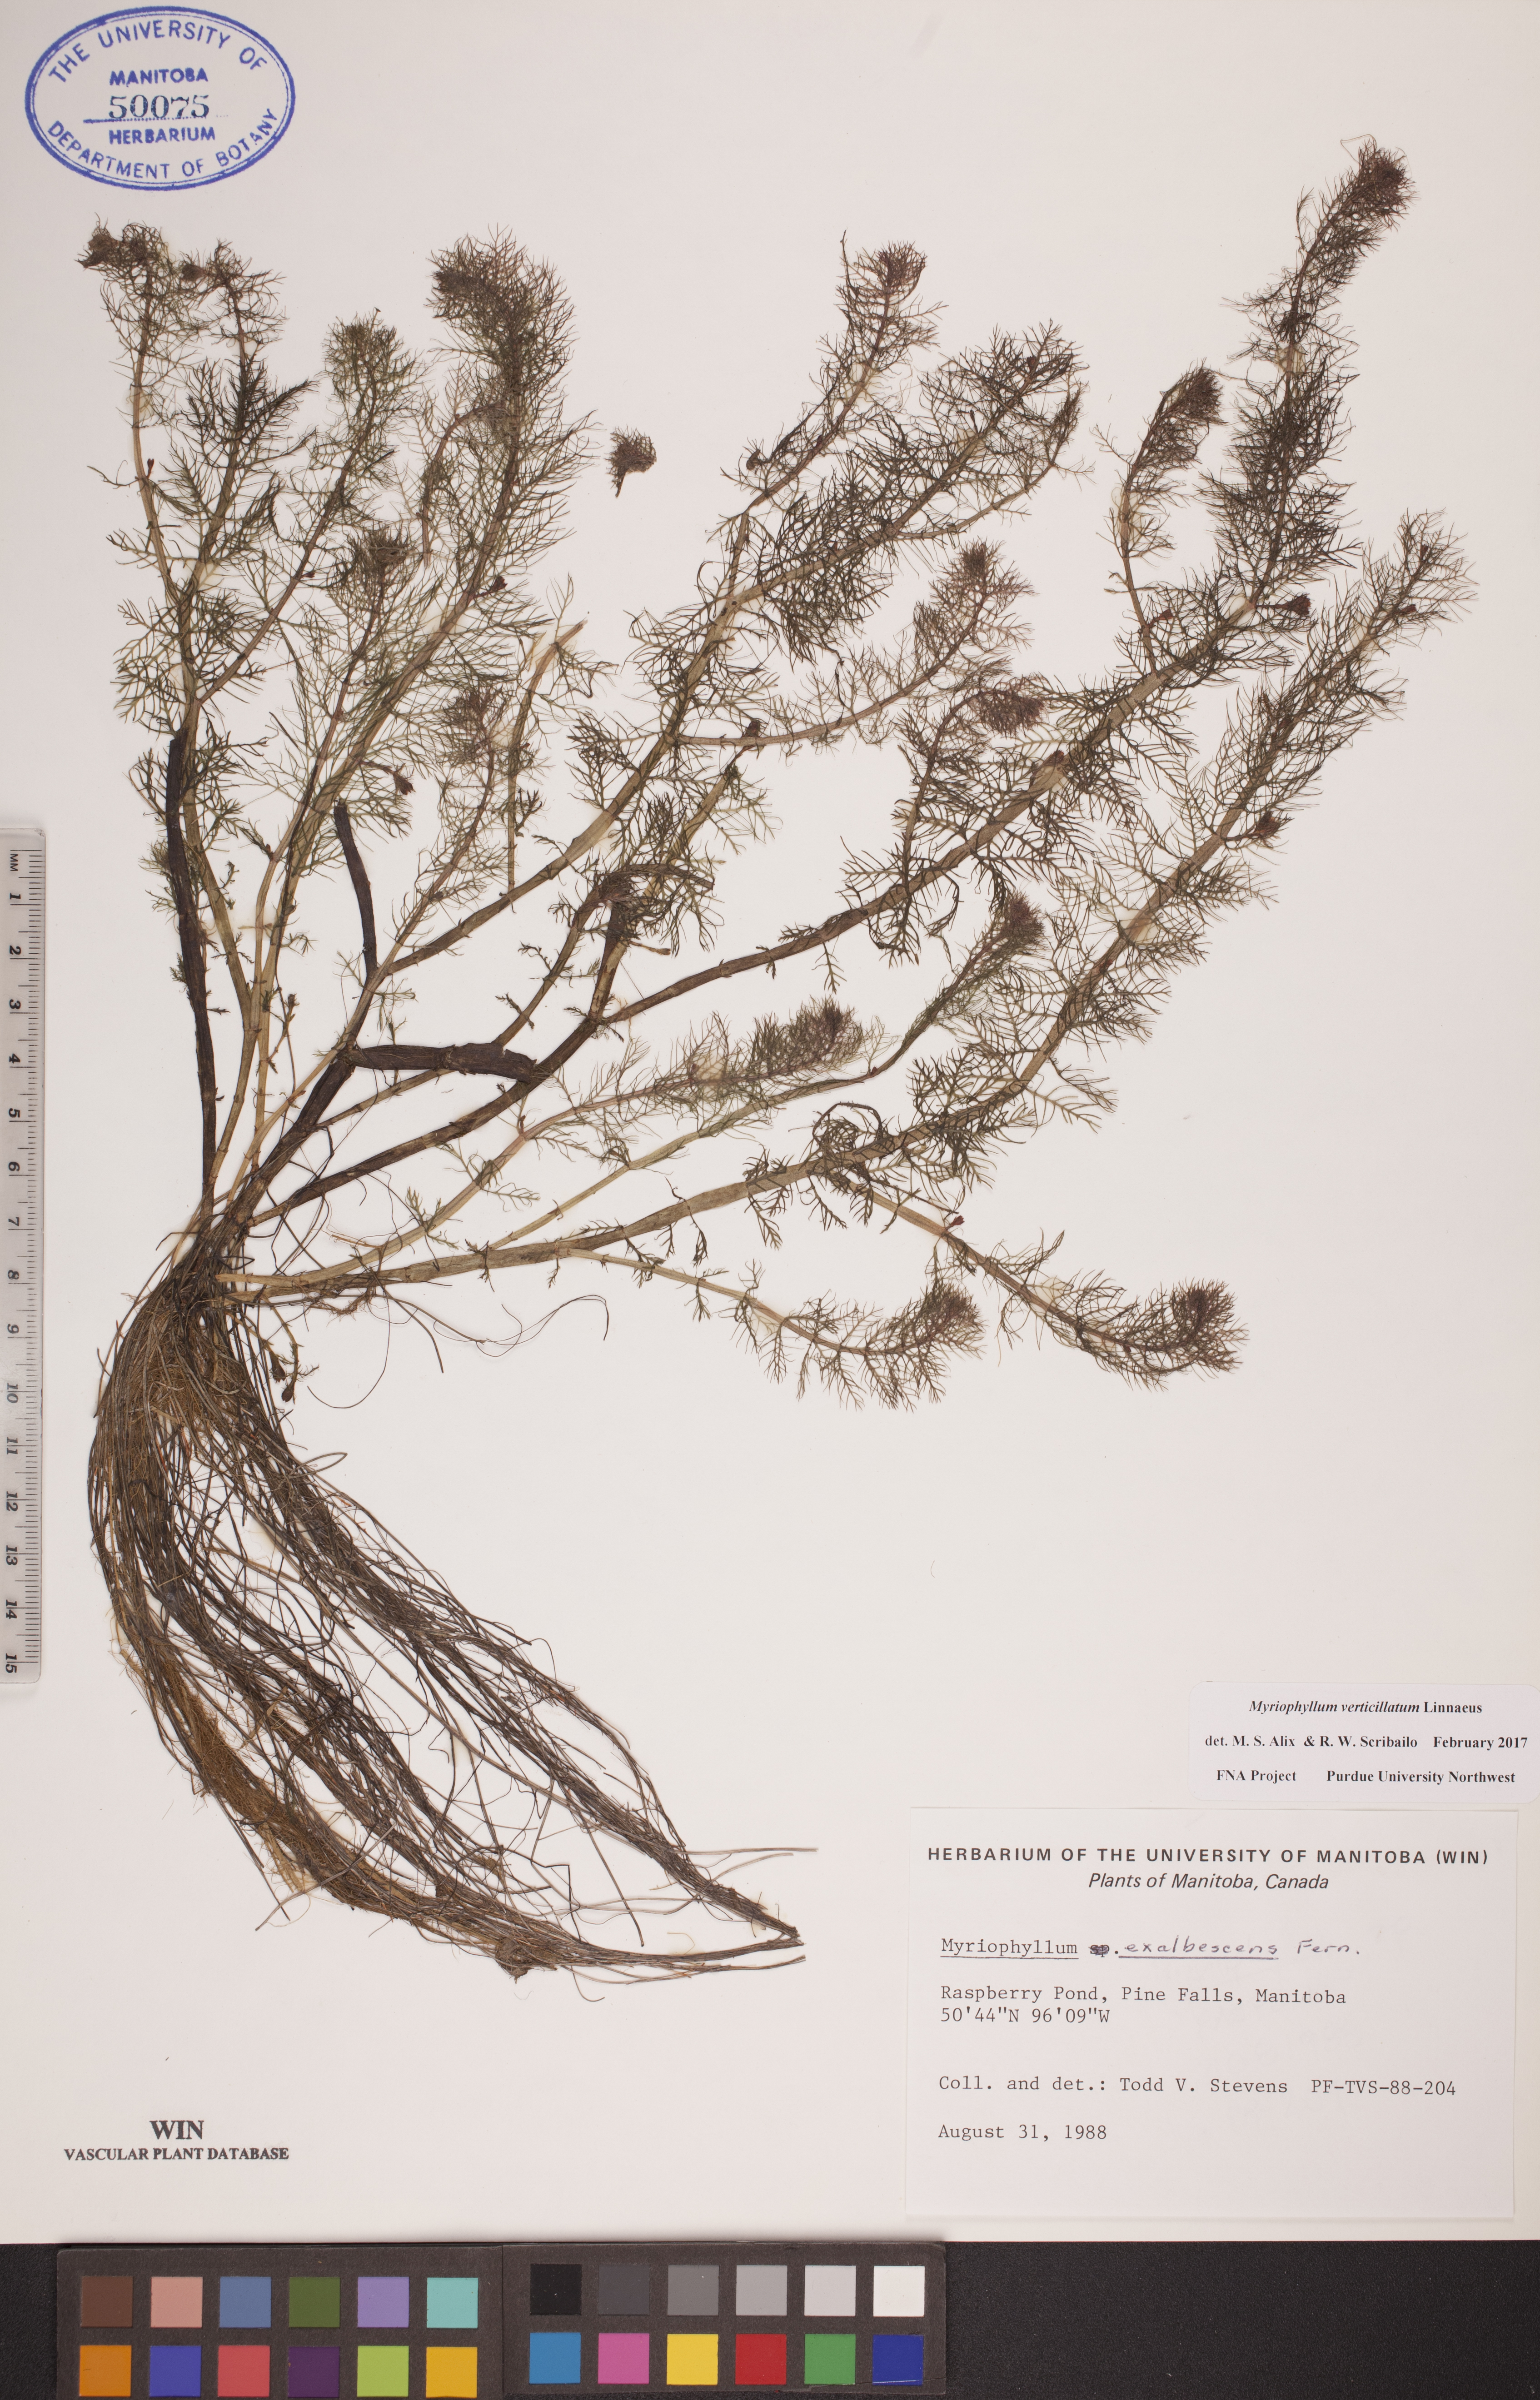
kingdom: Plantae
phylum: Tracheophyta
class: Magnoliopsida
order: Saxifragales
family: Haloragaceae
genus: Myriophyllum
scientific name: Myriophyllum verticillatum
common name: Whorled water-milfoil
